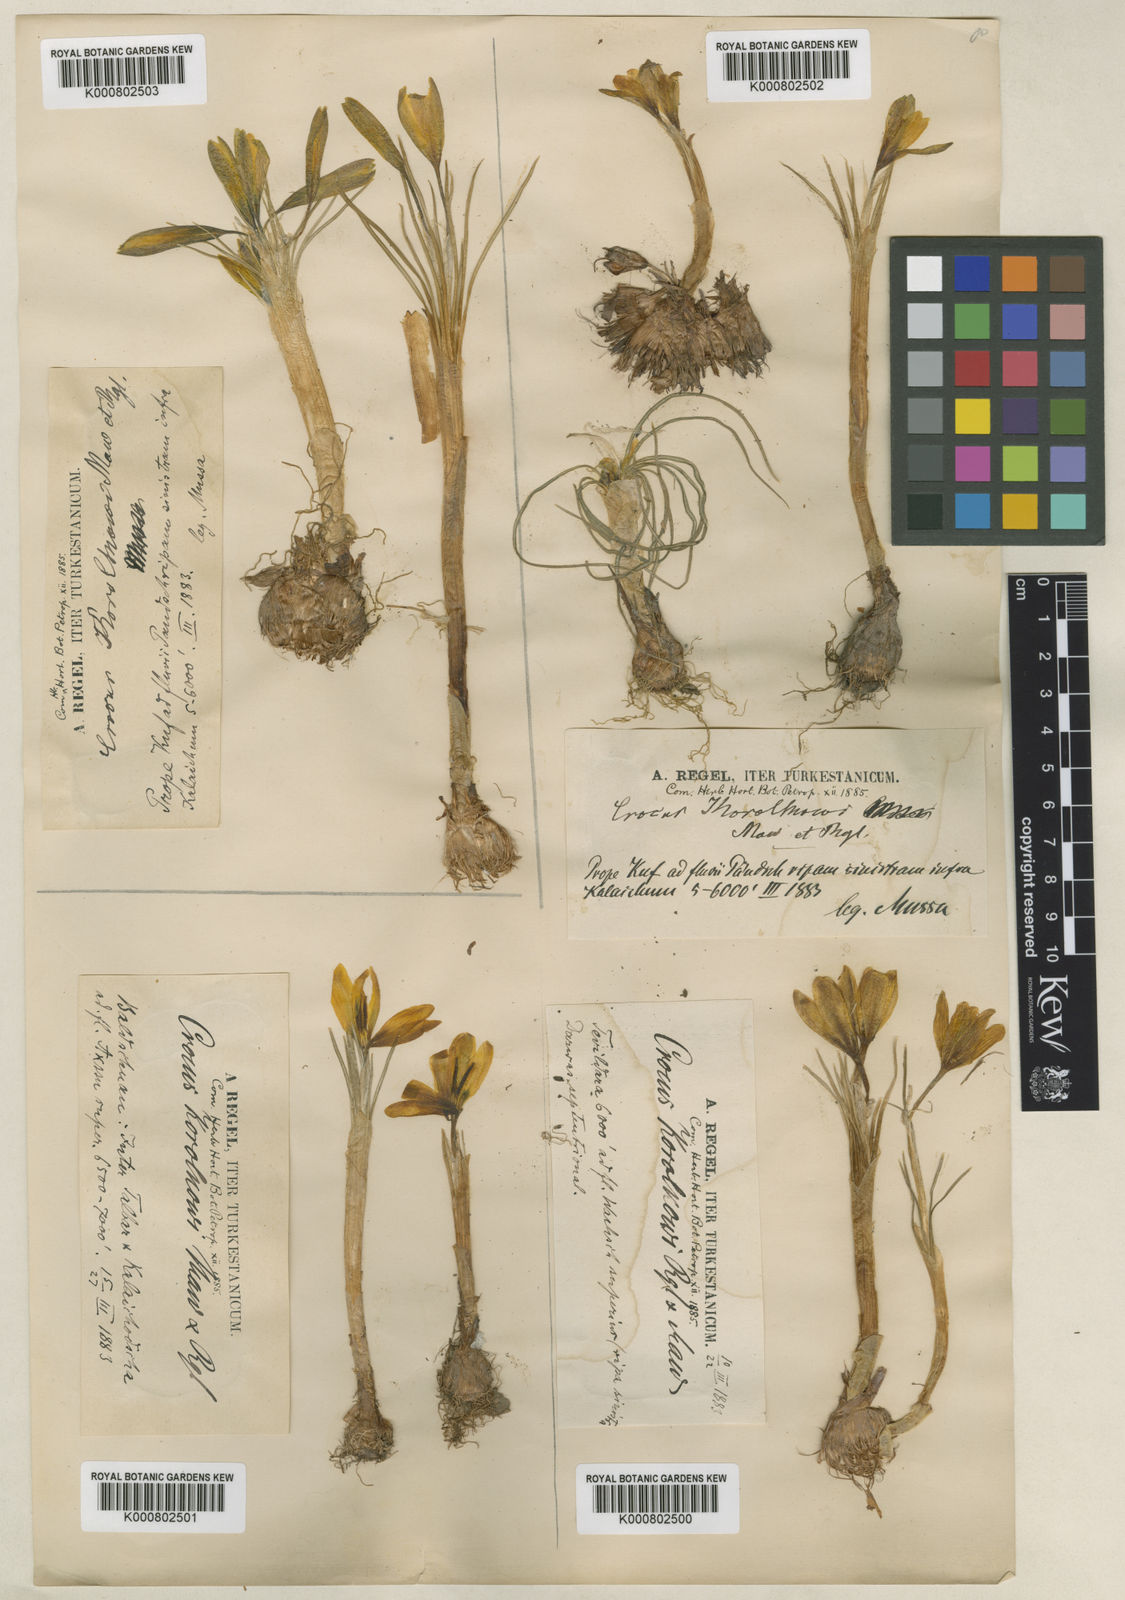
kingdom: Plantae
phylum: Tracheophyta
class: Liliopsida
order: Asparagales
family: Iridaceae
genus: Crocus
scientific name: Crocus korolkowii
